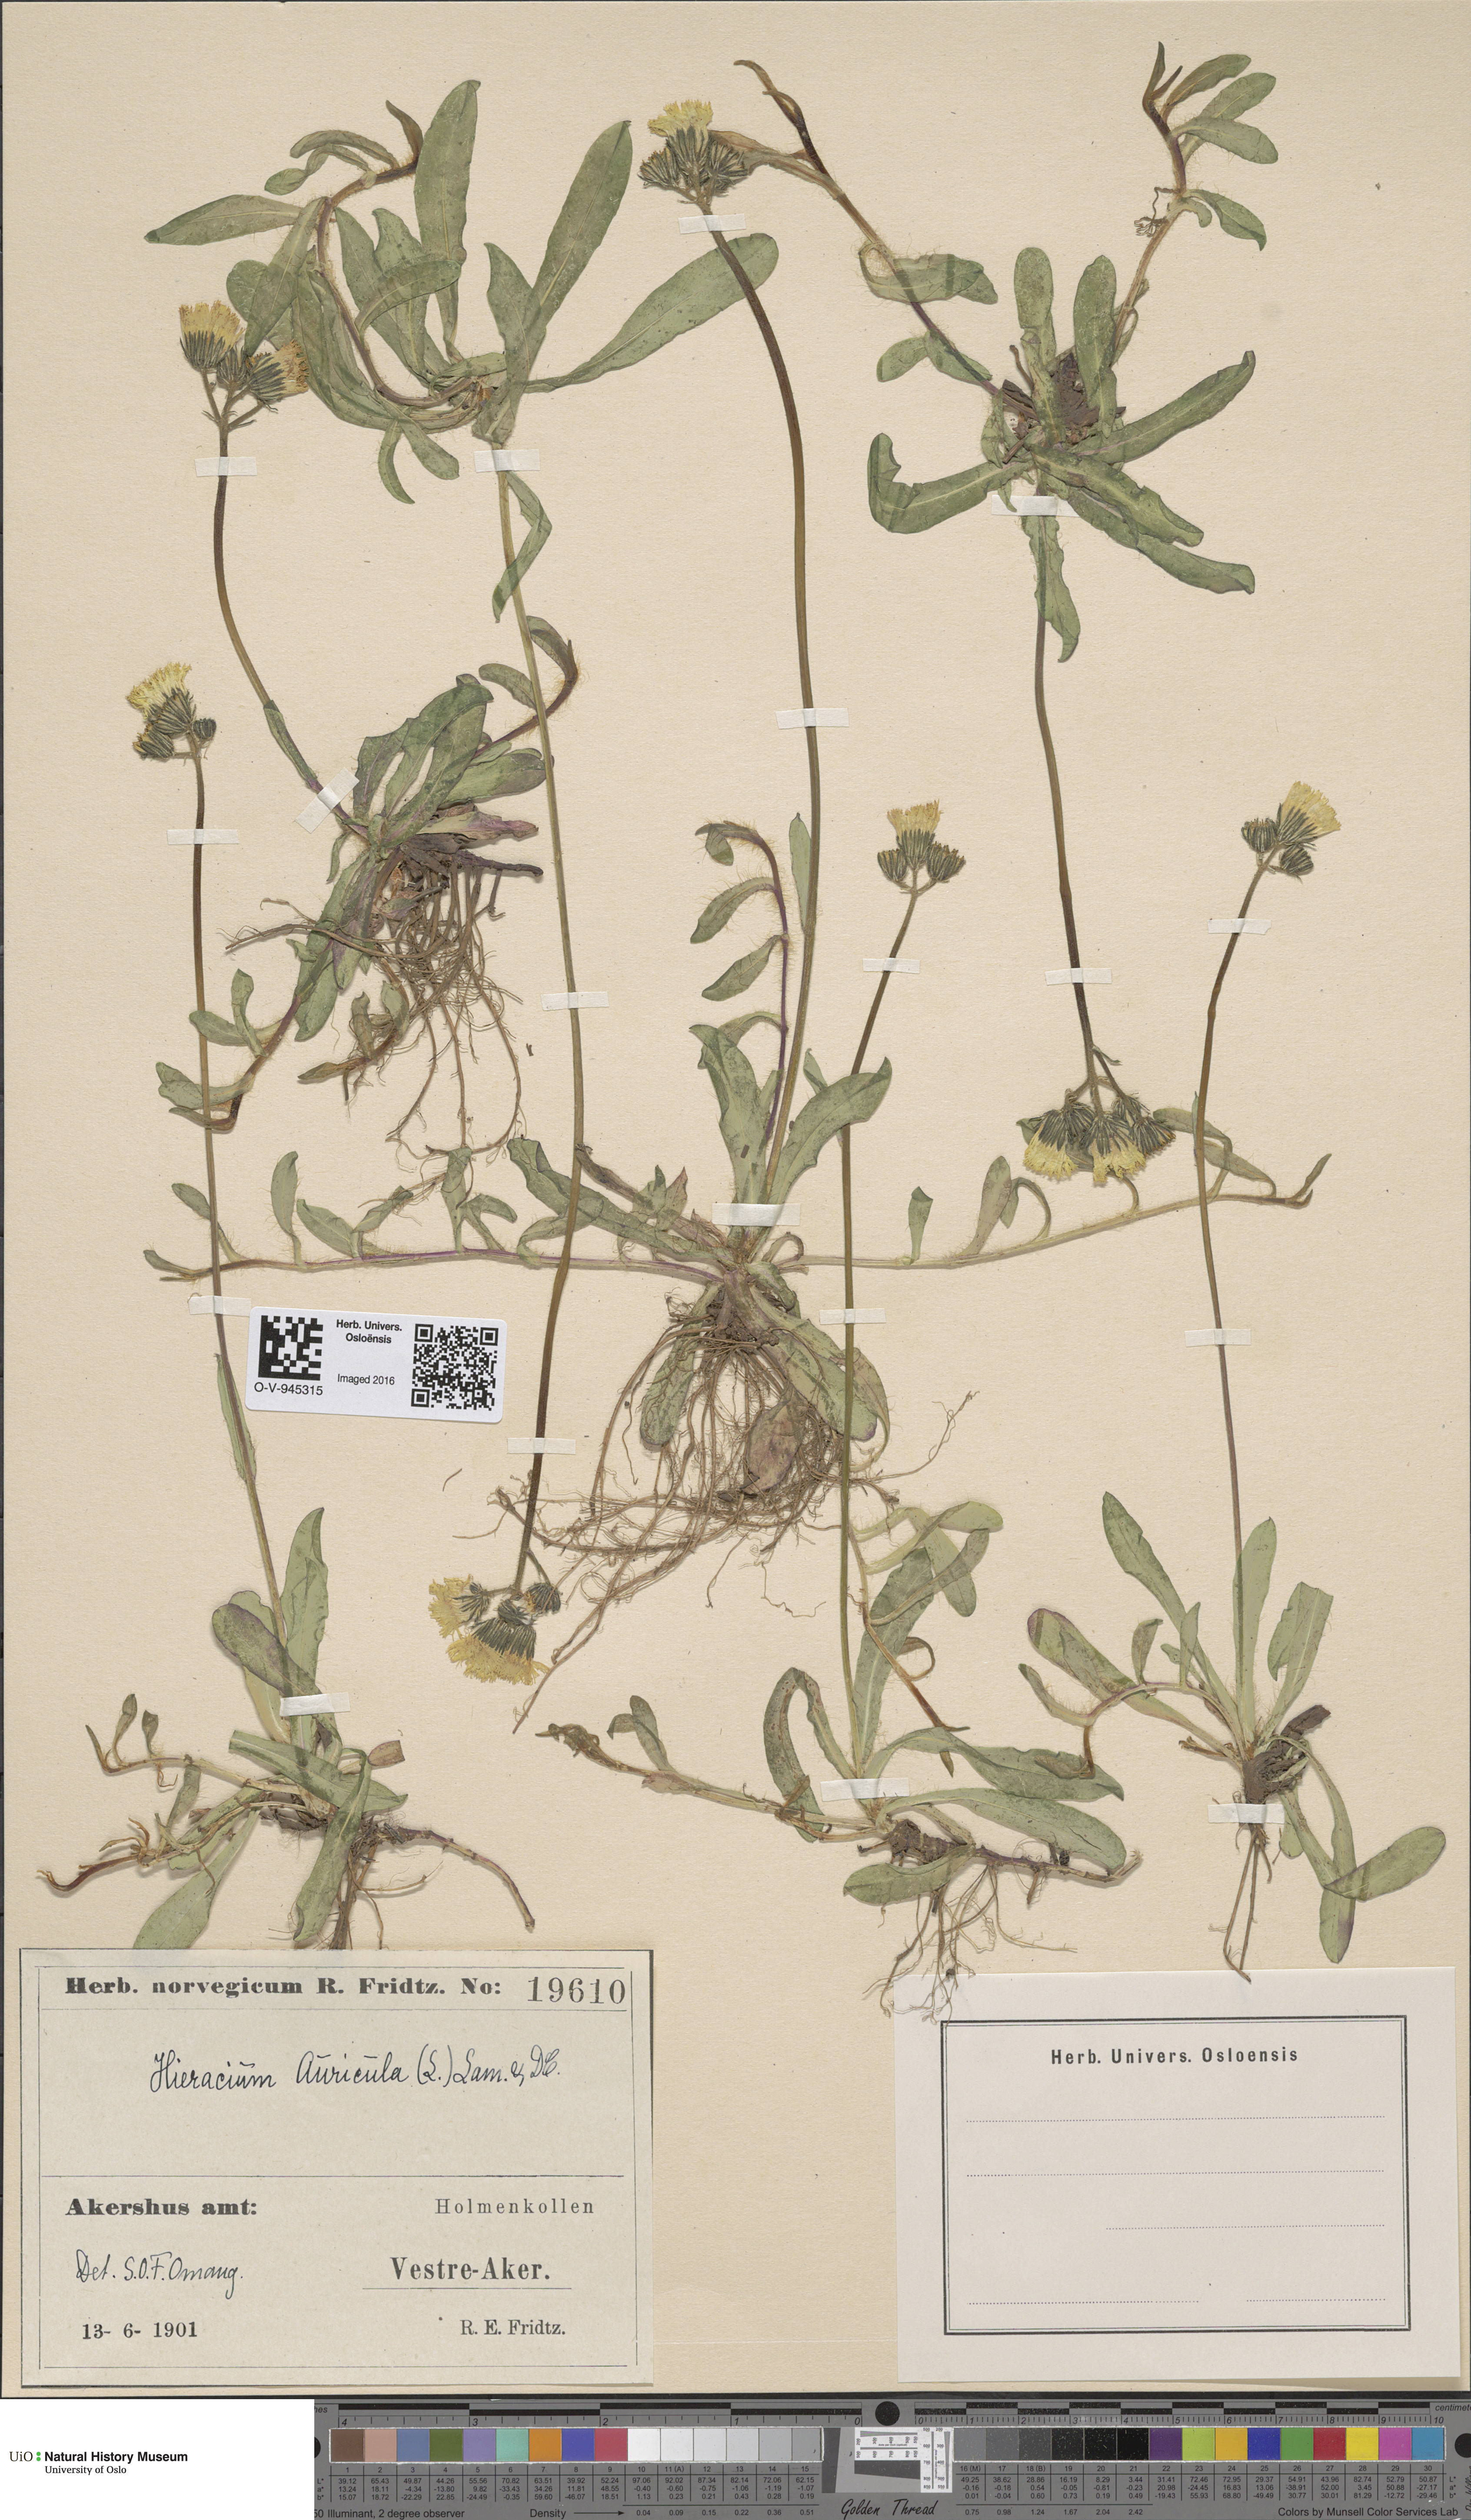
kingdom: Plantae
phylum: Tracheophyta
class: Magnoliopsida
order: Asterales
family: Asteraceae
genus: Pilosella
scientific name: Pilosella lactucella
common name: Glaucous fox-and-cubs
